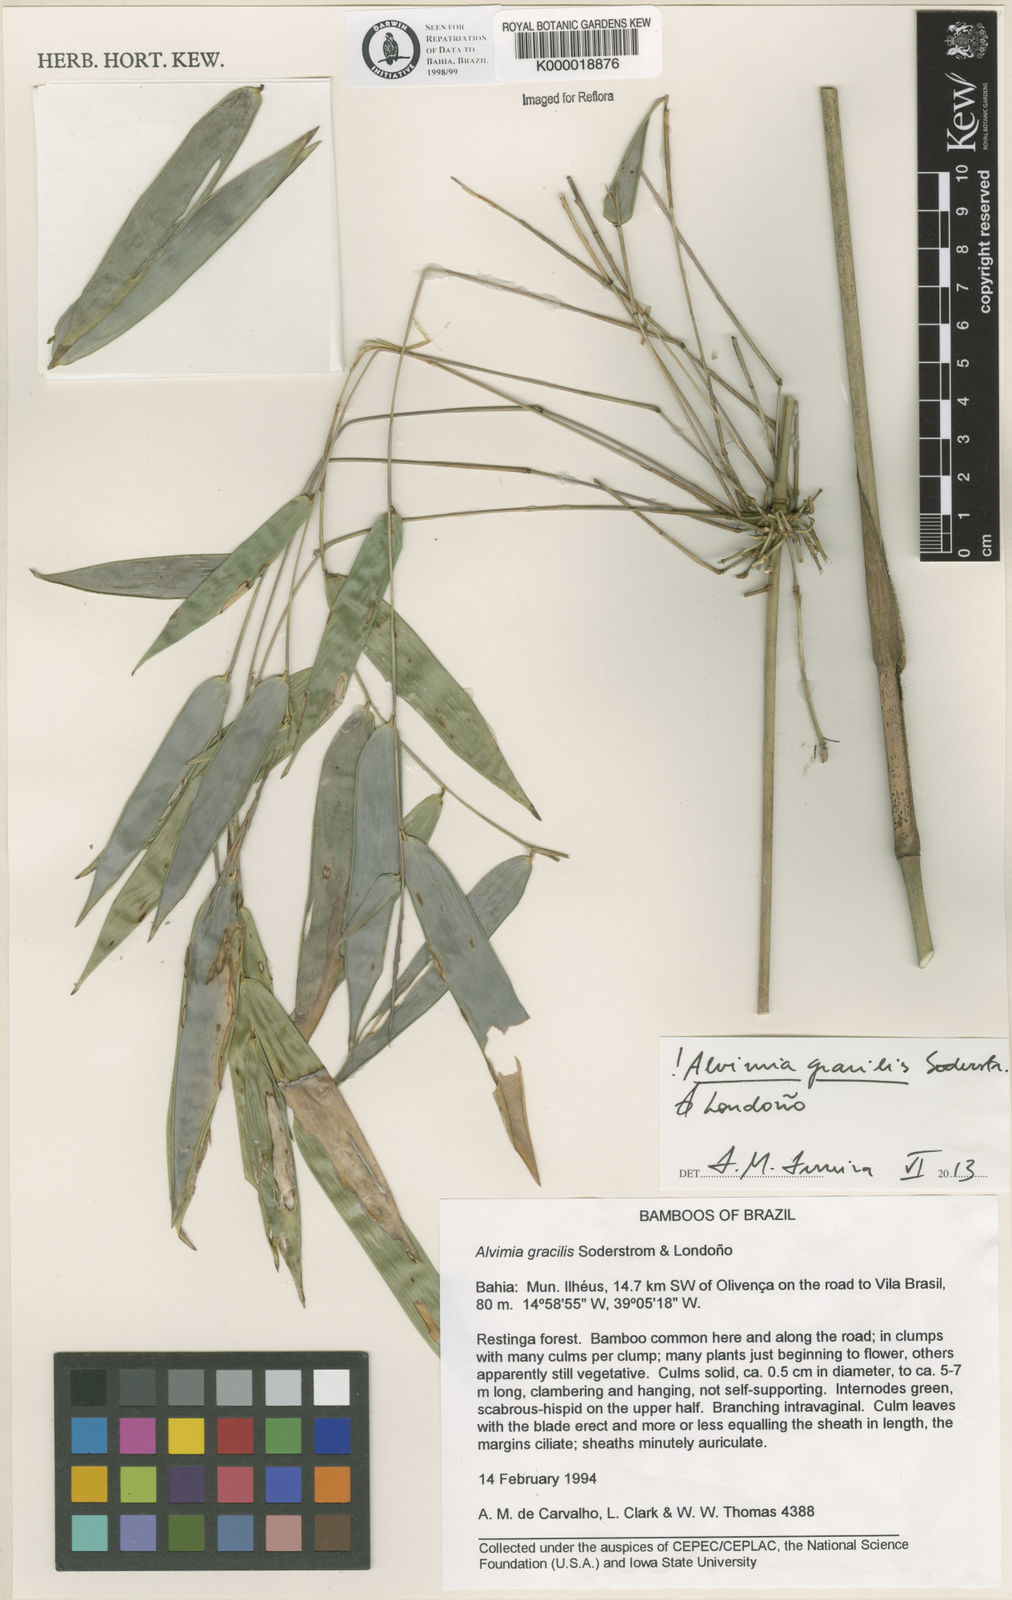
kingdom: Plantae
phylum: Tracheophyta
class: Liliopsida
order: Poales
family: Poaceae
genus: Alvimia
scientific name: Alvimia
